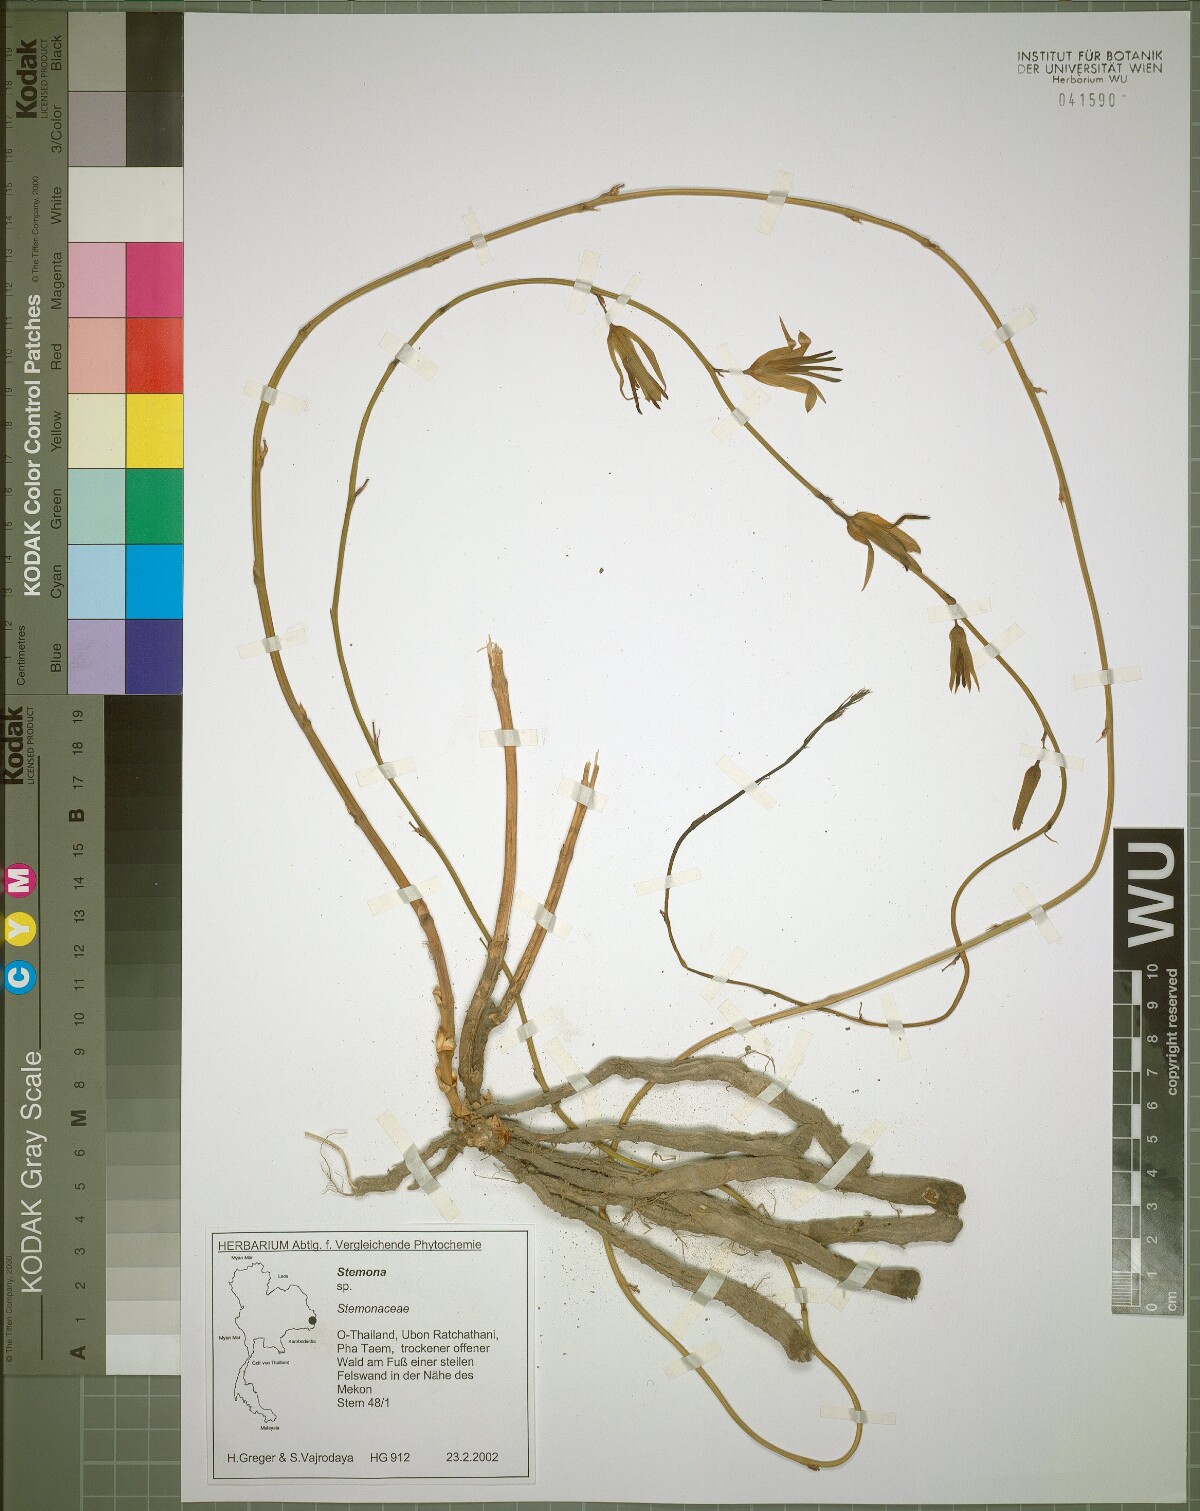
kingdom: Plantae
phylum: Tracheophyta
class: Liliopsida
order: Pandanales
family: Stemonaceae
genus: Stemona
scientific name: Stemona aphylla
